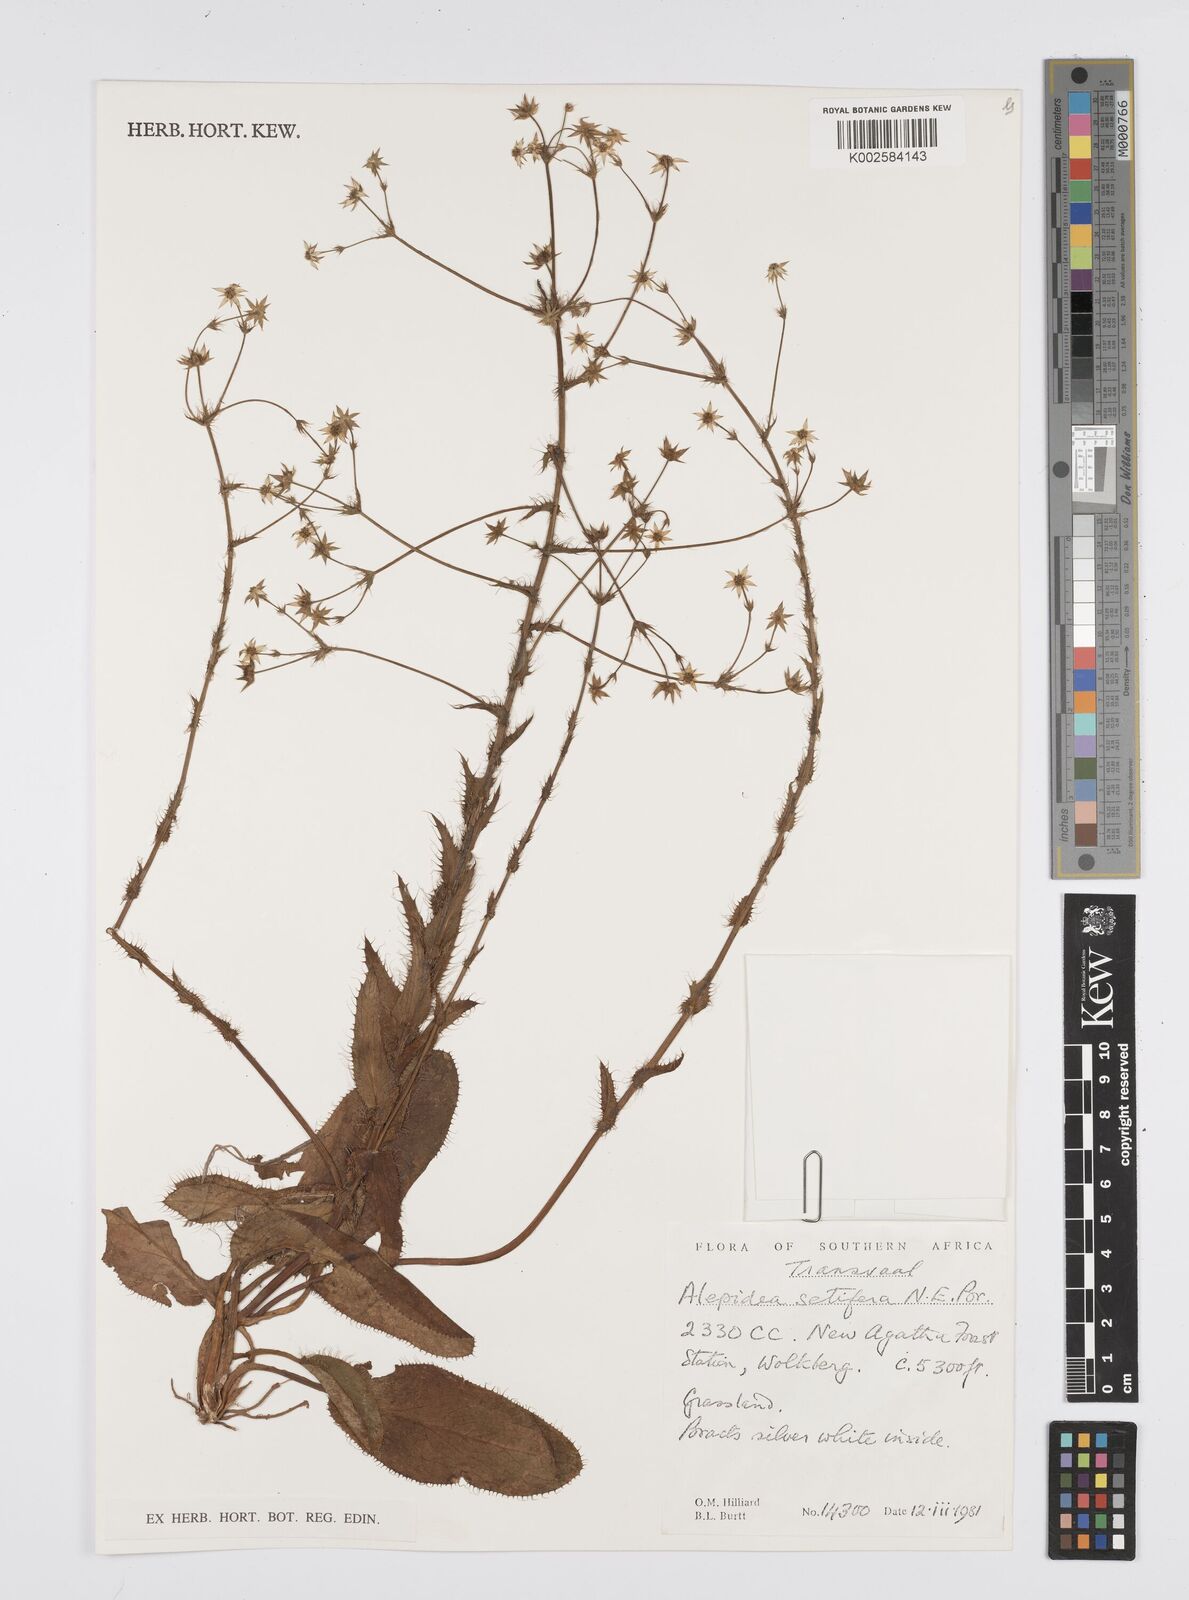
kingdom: Plantae
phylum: Tracheophyta
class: Magnoliopsida
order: Apiales
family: Apiaceae
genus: Alepidea
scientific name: Alepidea setifera
